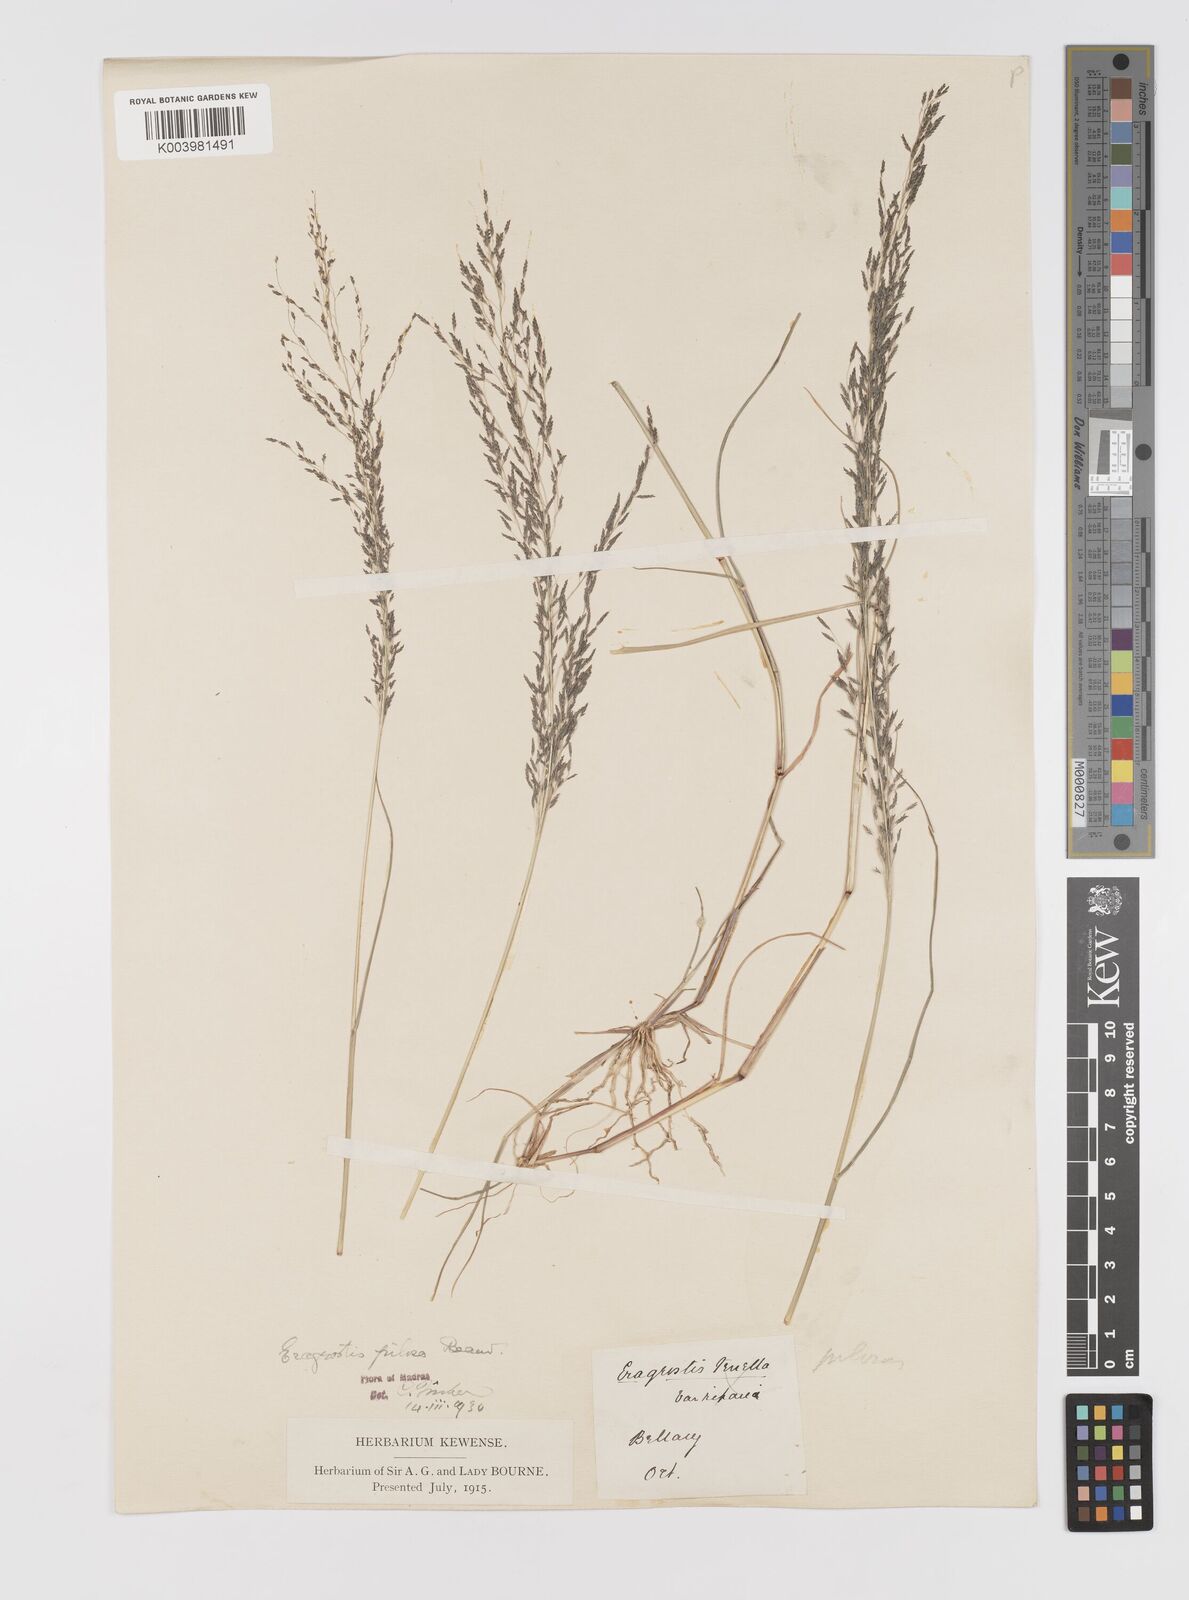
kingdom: Plantae
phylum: Tracheophyta
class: Liliopsida
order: Poales
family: Poaceae
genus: Eragrostis
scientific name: Eragrostis pilosa
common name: Indian lovegrass
